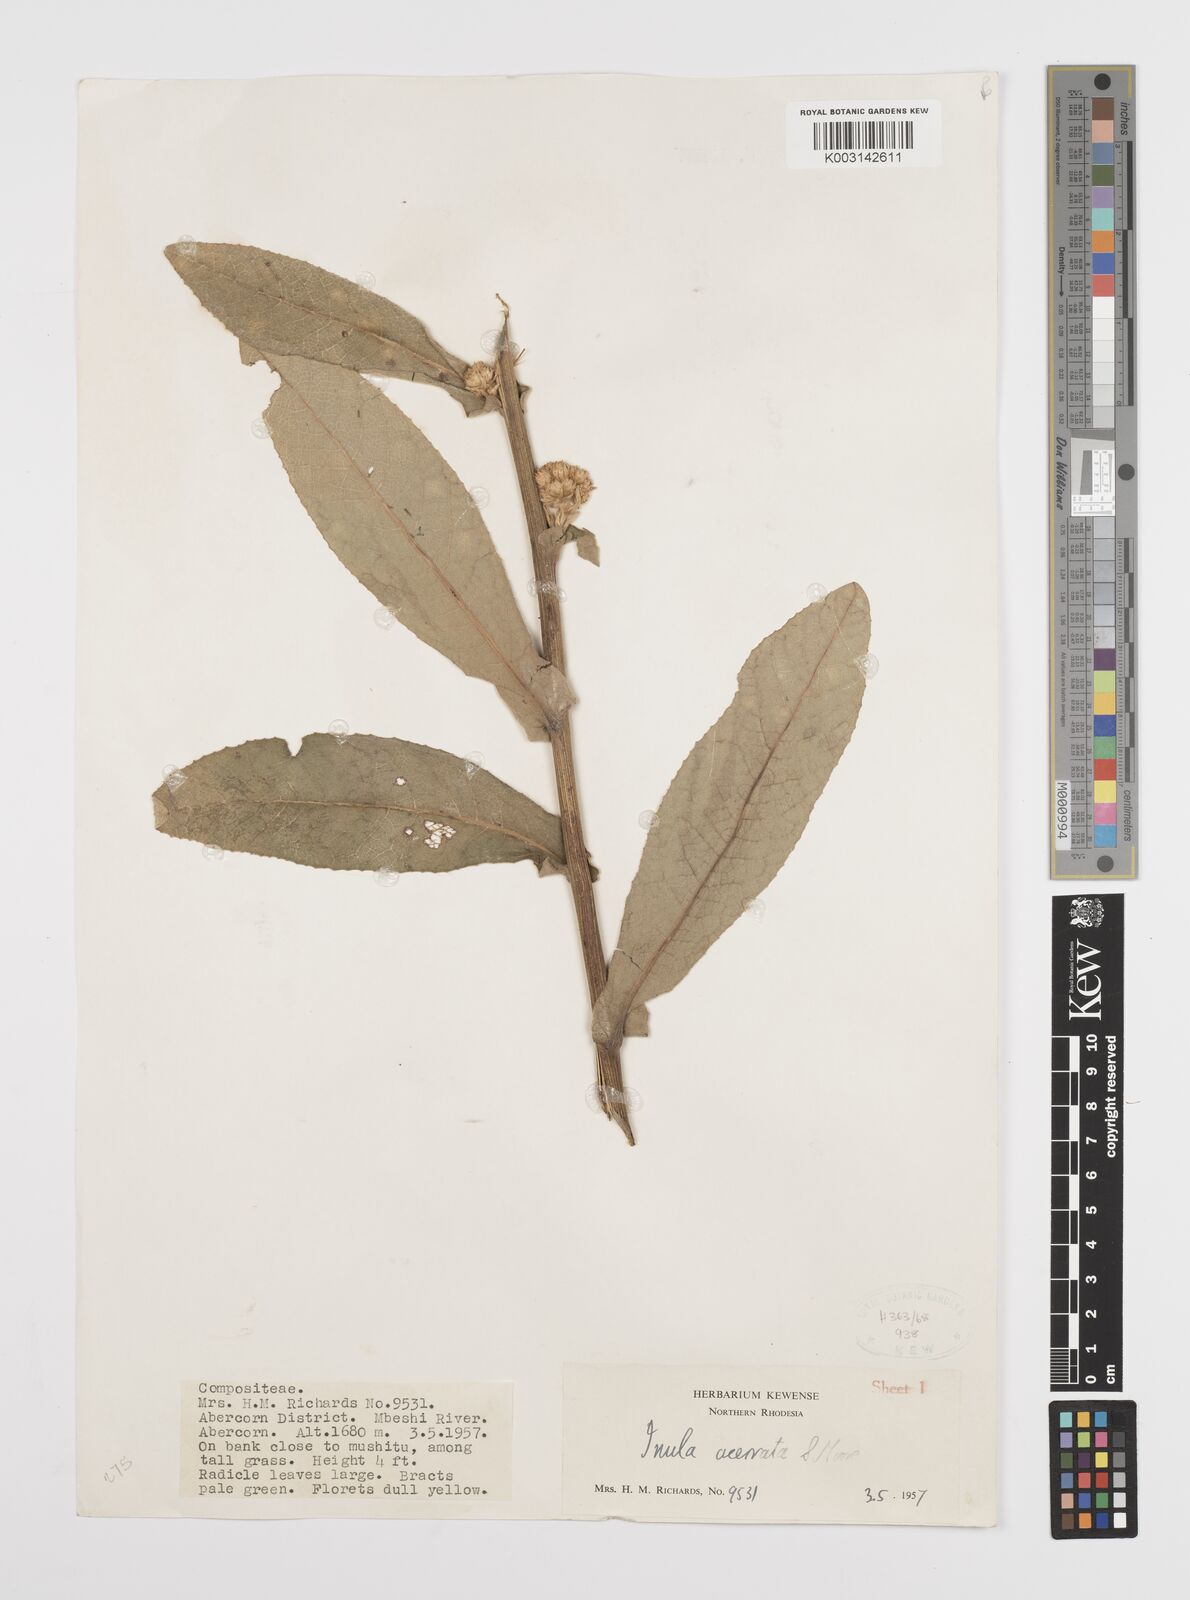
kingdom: Plantae
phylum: Tracheophyta
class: Magnoliopsida
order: Asterales
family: Asteraceae
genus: Inula
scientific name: Inula glomerata
